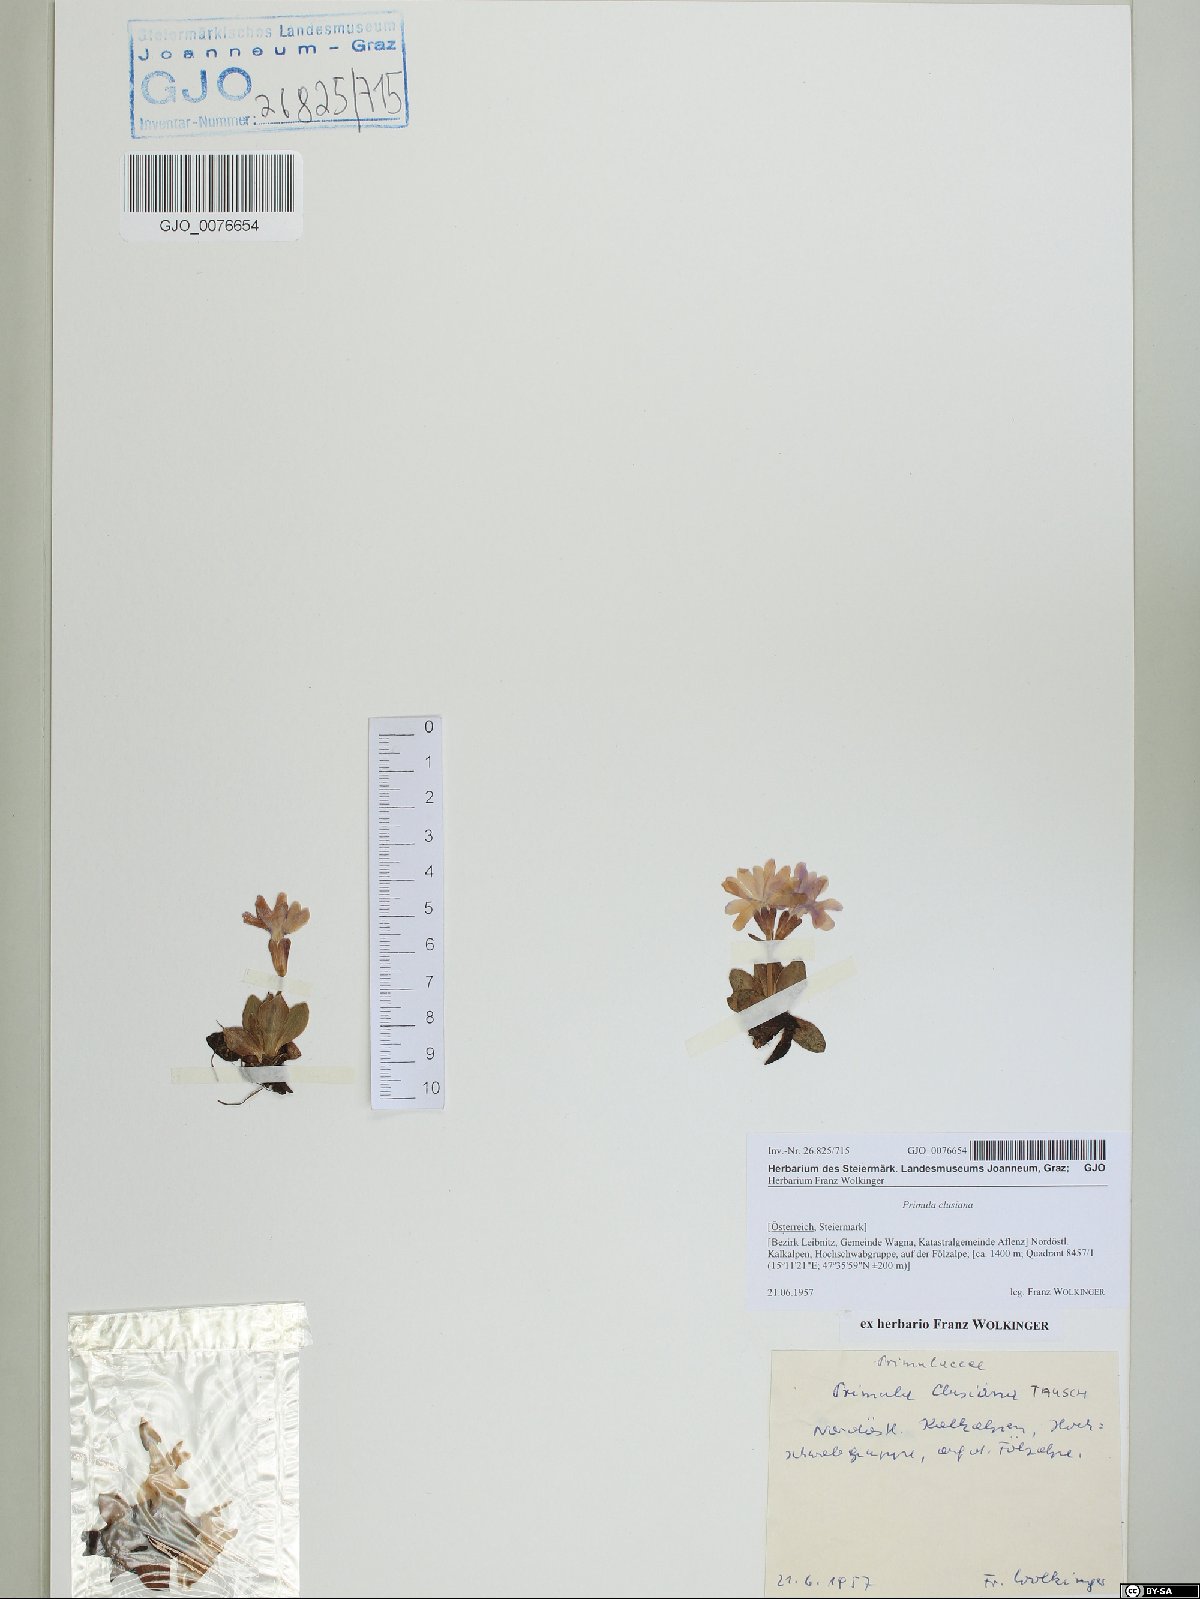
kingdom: Plantae
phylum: Tracheophyta
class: Magnoliopsida
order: Ericales
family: Primulaceae
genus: Primula
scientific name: Primula clusiana
